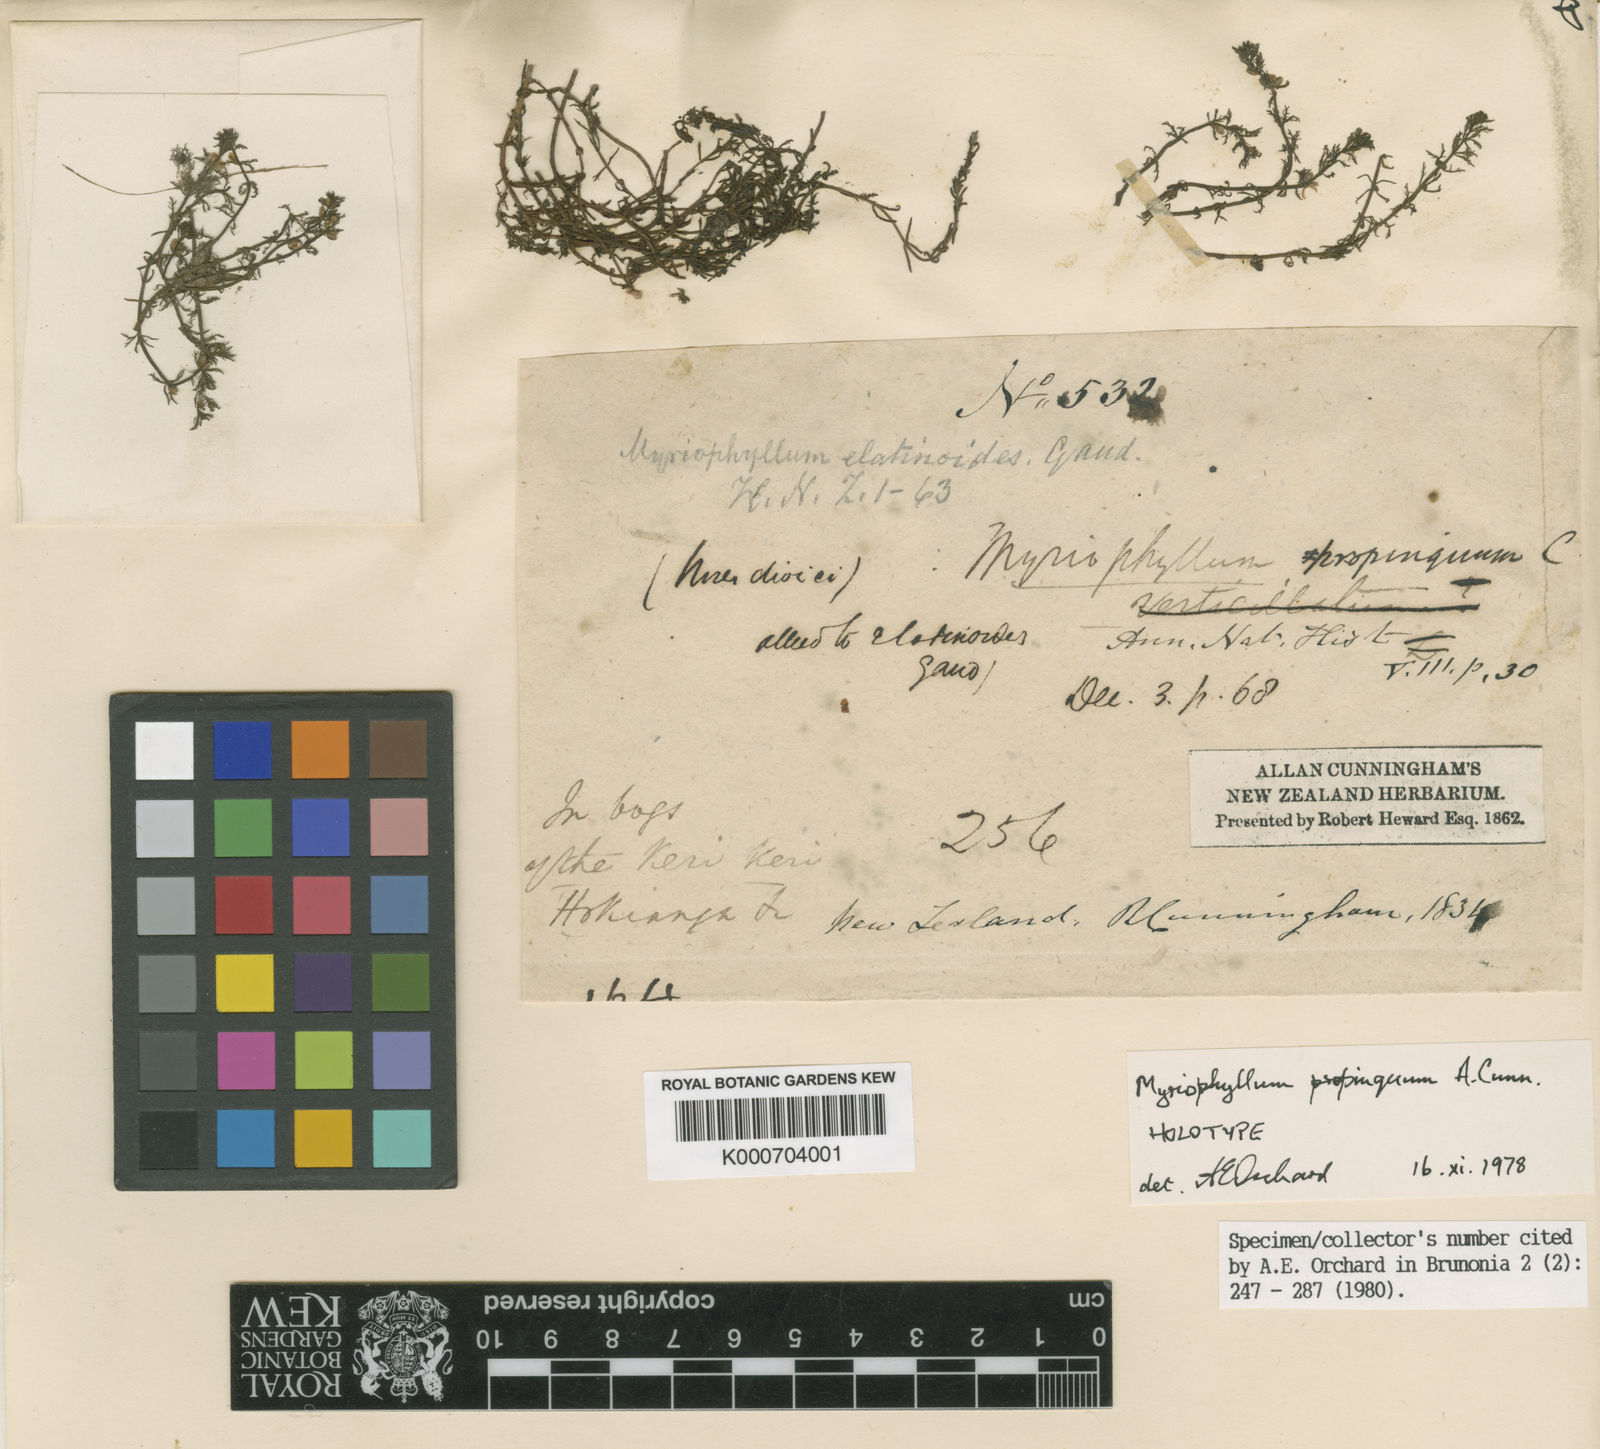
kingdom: Plantae
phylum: Tracheophyta
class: Magnoliopsida
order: Saxifragales
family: Haloragaceae
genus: Myriophyllum
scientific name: Myriophyllum propinquum
